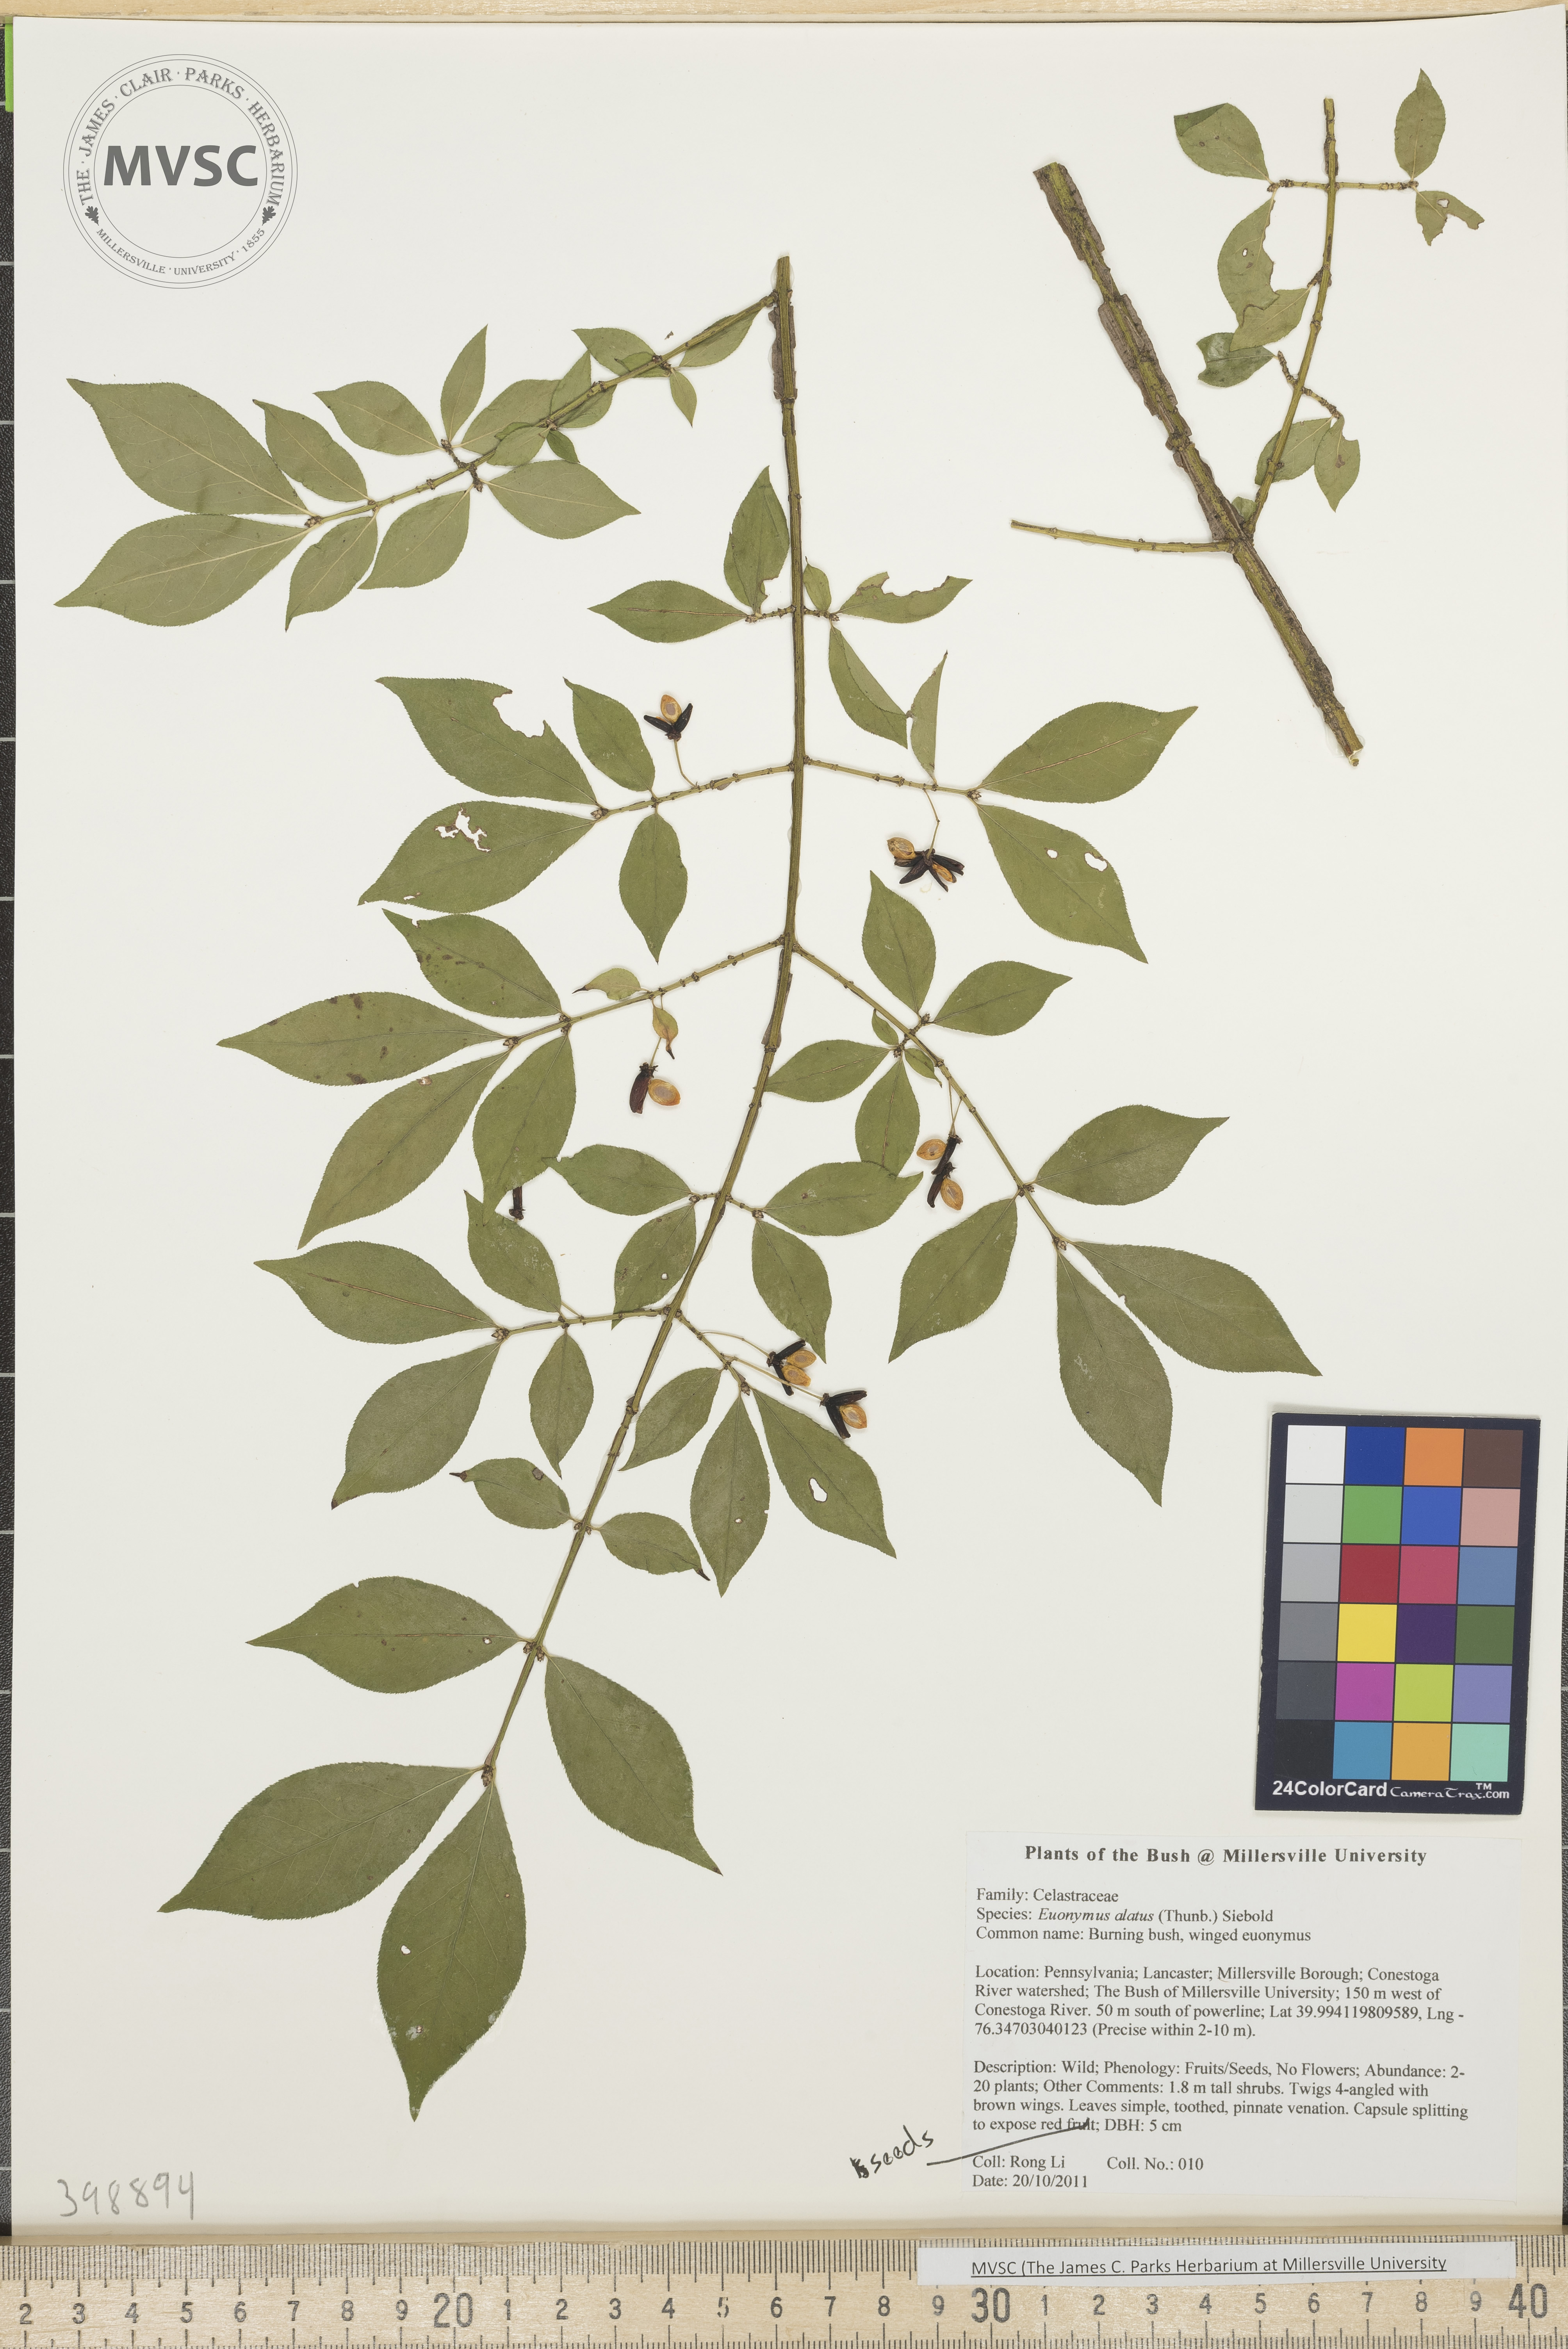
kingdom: Plantae
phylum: Tracheophyta
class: Magnoliopsida
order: Celastrales
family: Celastraceae
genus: Euonymus
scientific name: Euonymus alatus
